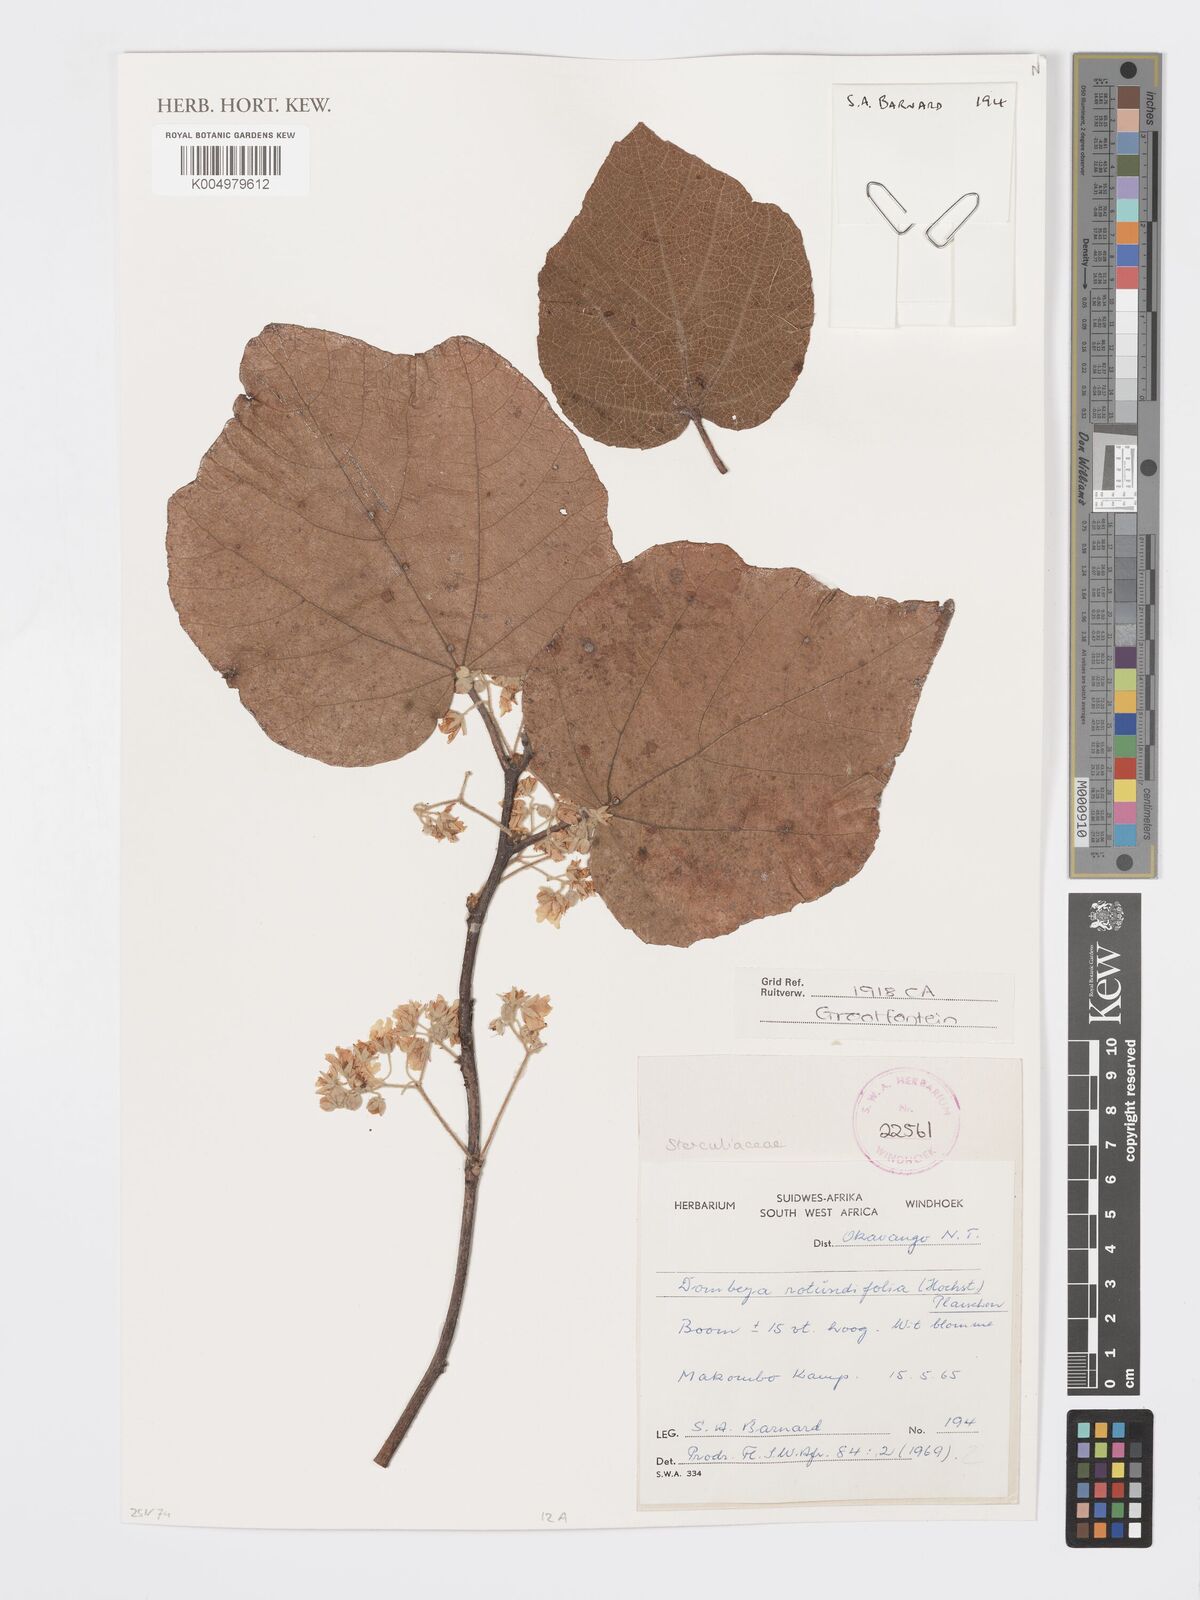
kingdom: Plantae
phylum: Tracheophyta
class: Magnoliopsida
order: Malvales
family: Malvaceae
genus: Dombeya
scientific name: Dombeya rotundifolia
